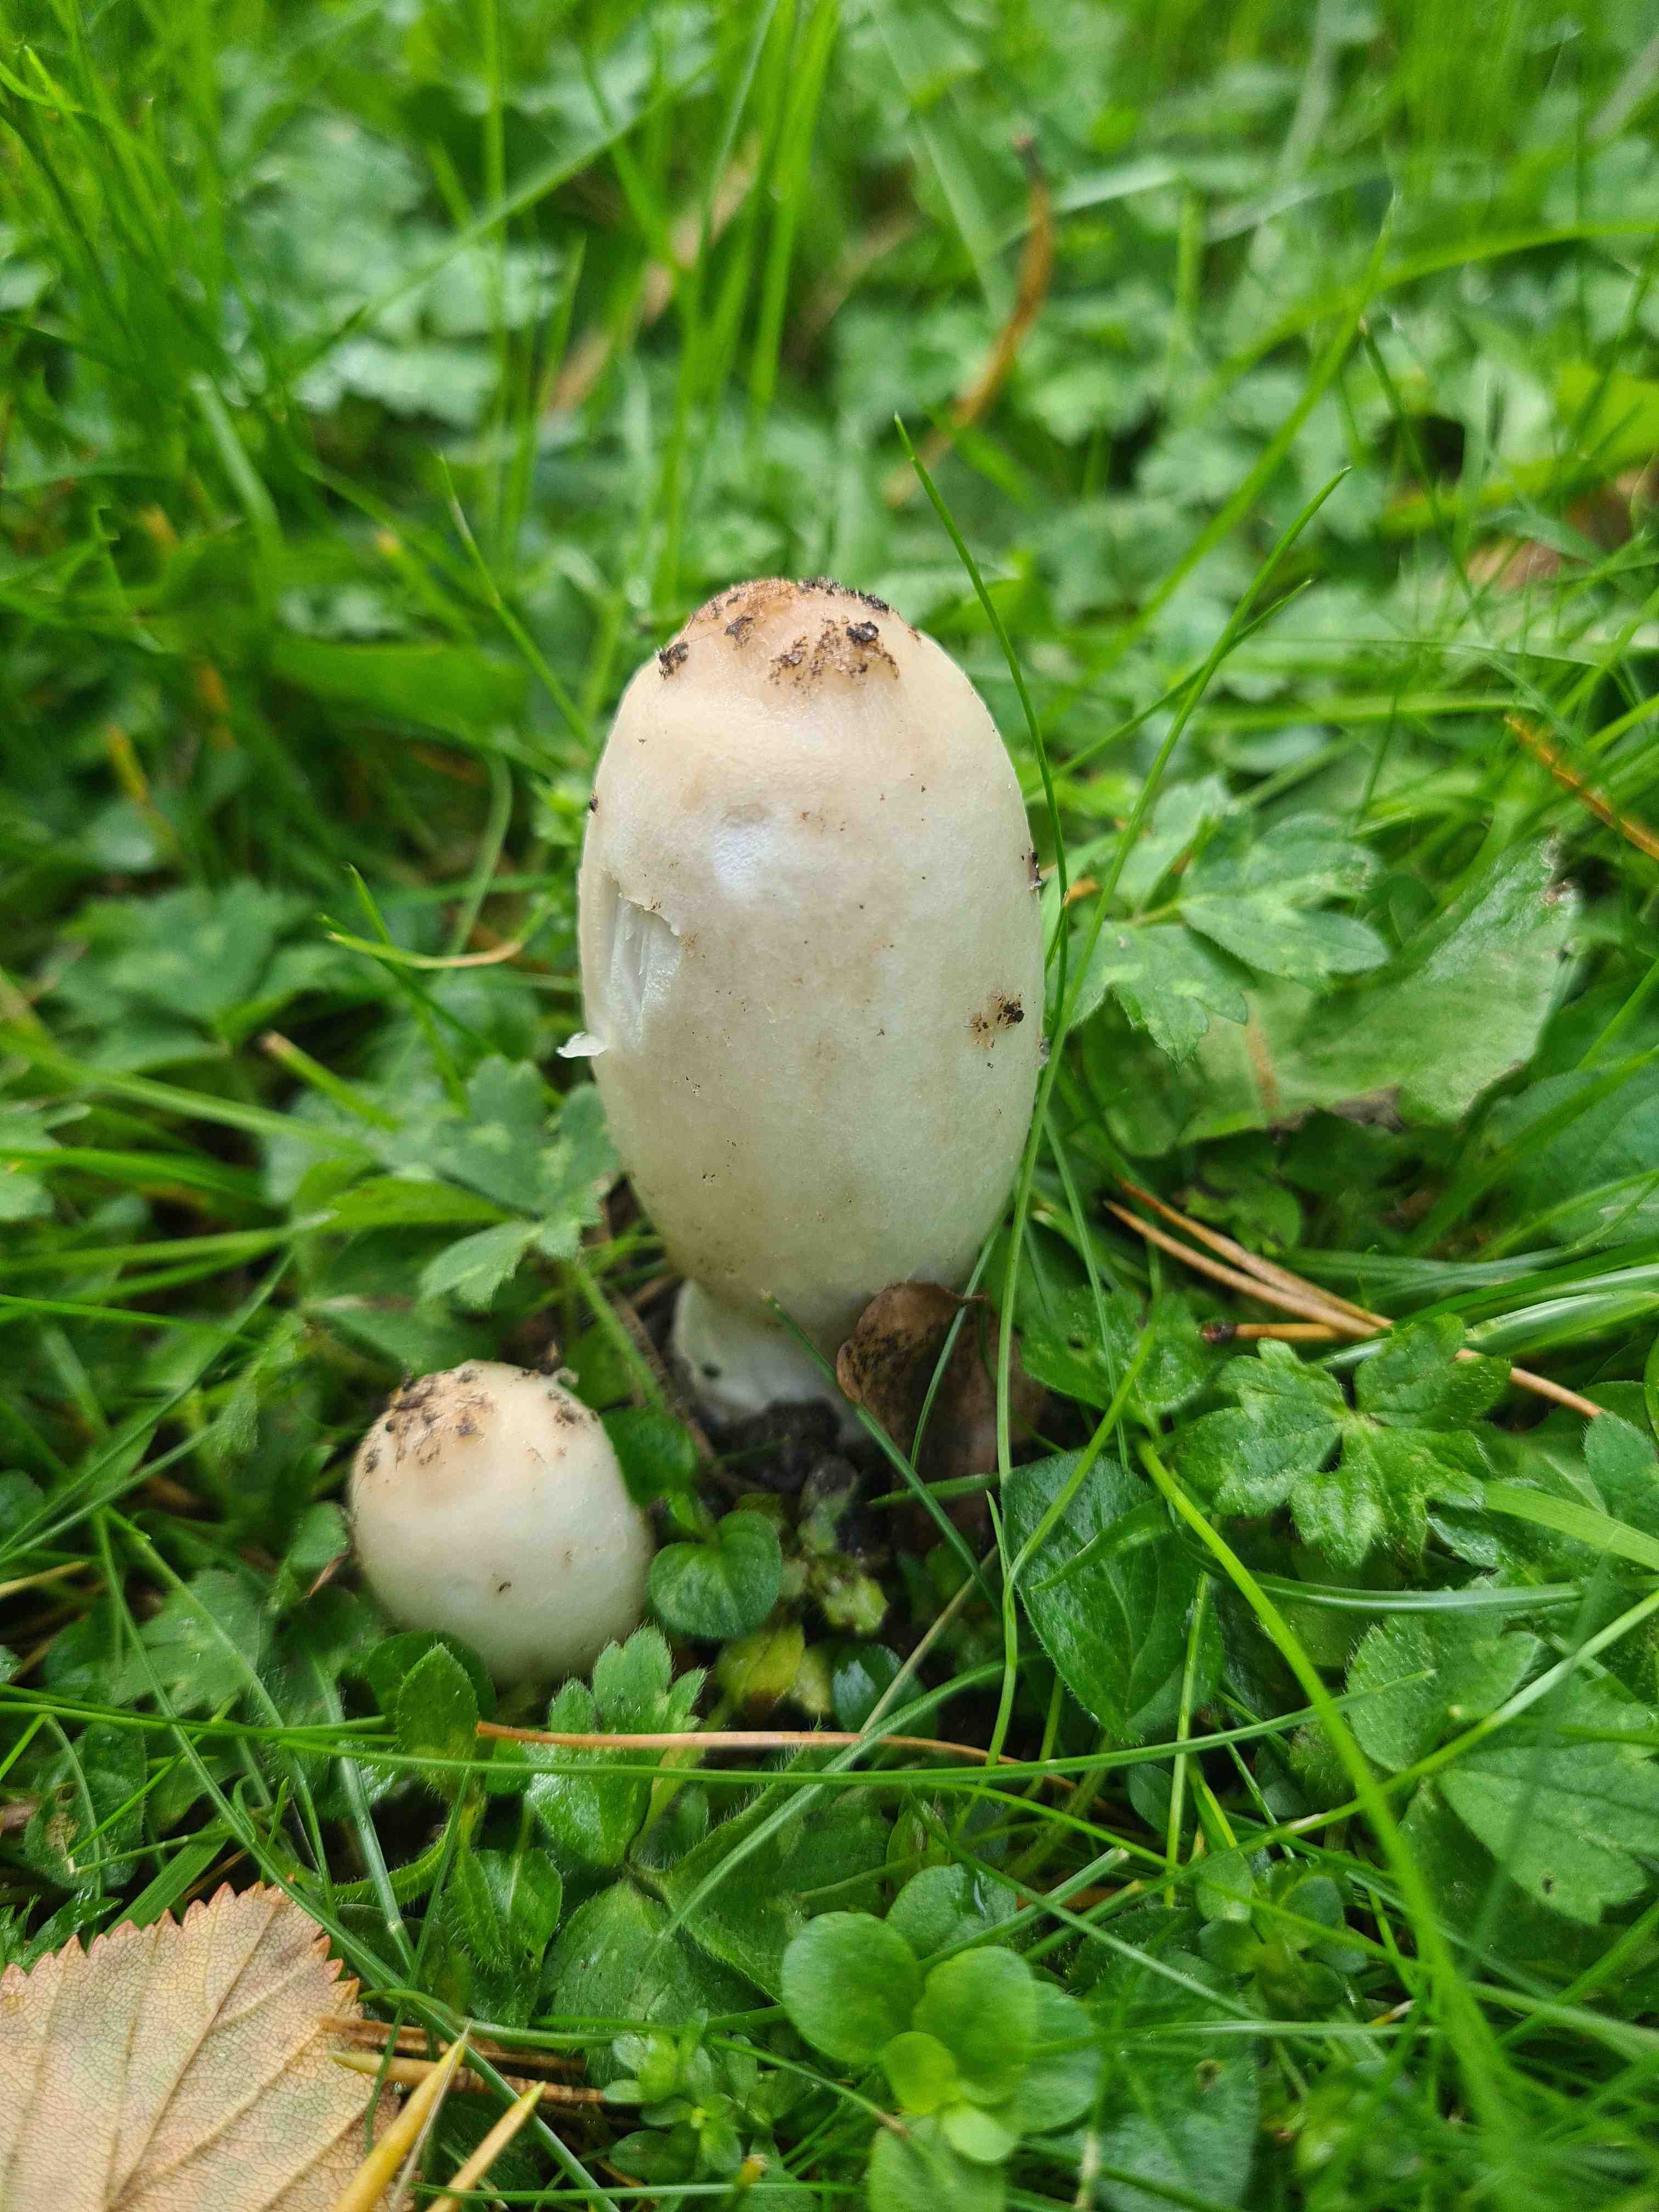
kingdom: Fungi
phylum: Basidiomycota
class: Agaricomycetes
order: Agaricales
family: Agaricaceae
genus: Coprinus
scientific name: Coprinus comatus
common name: stor parykhat
